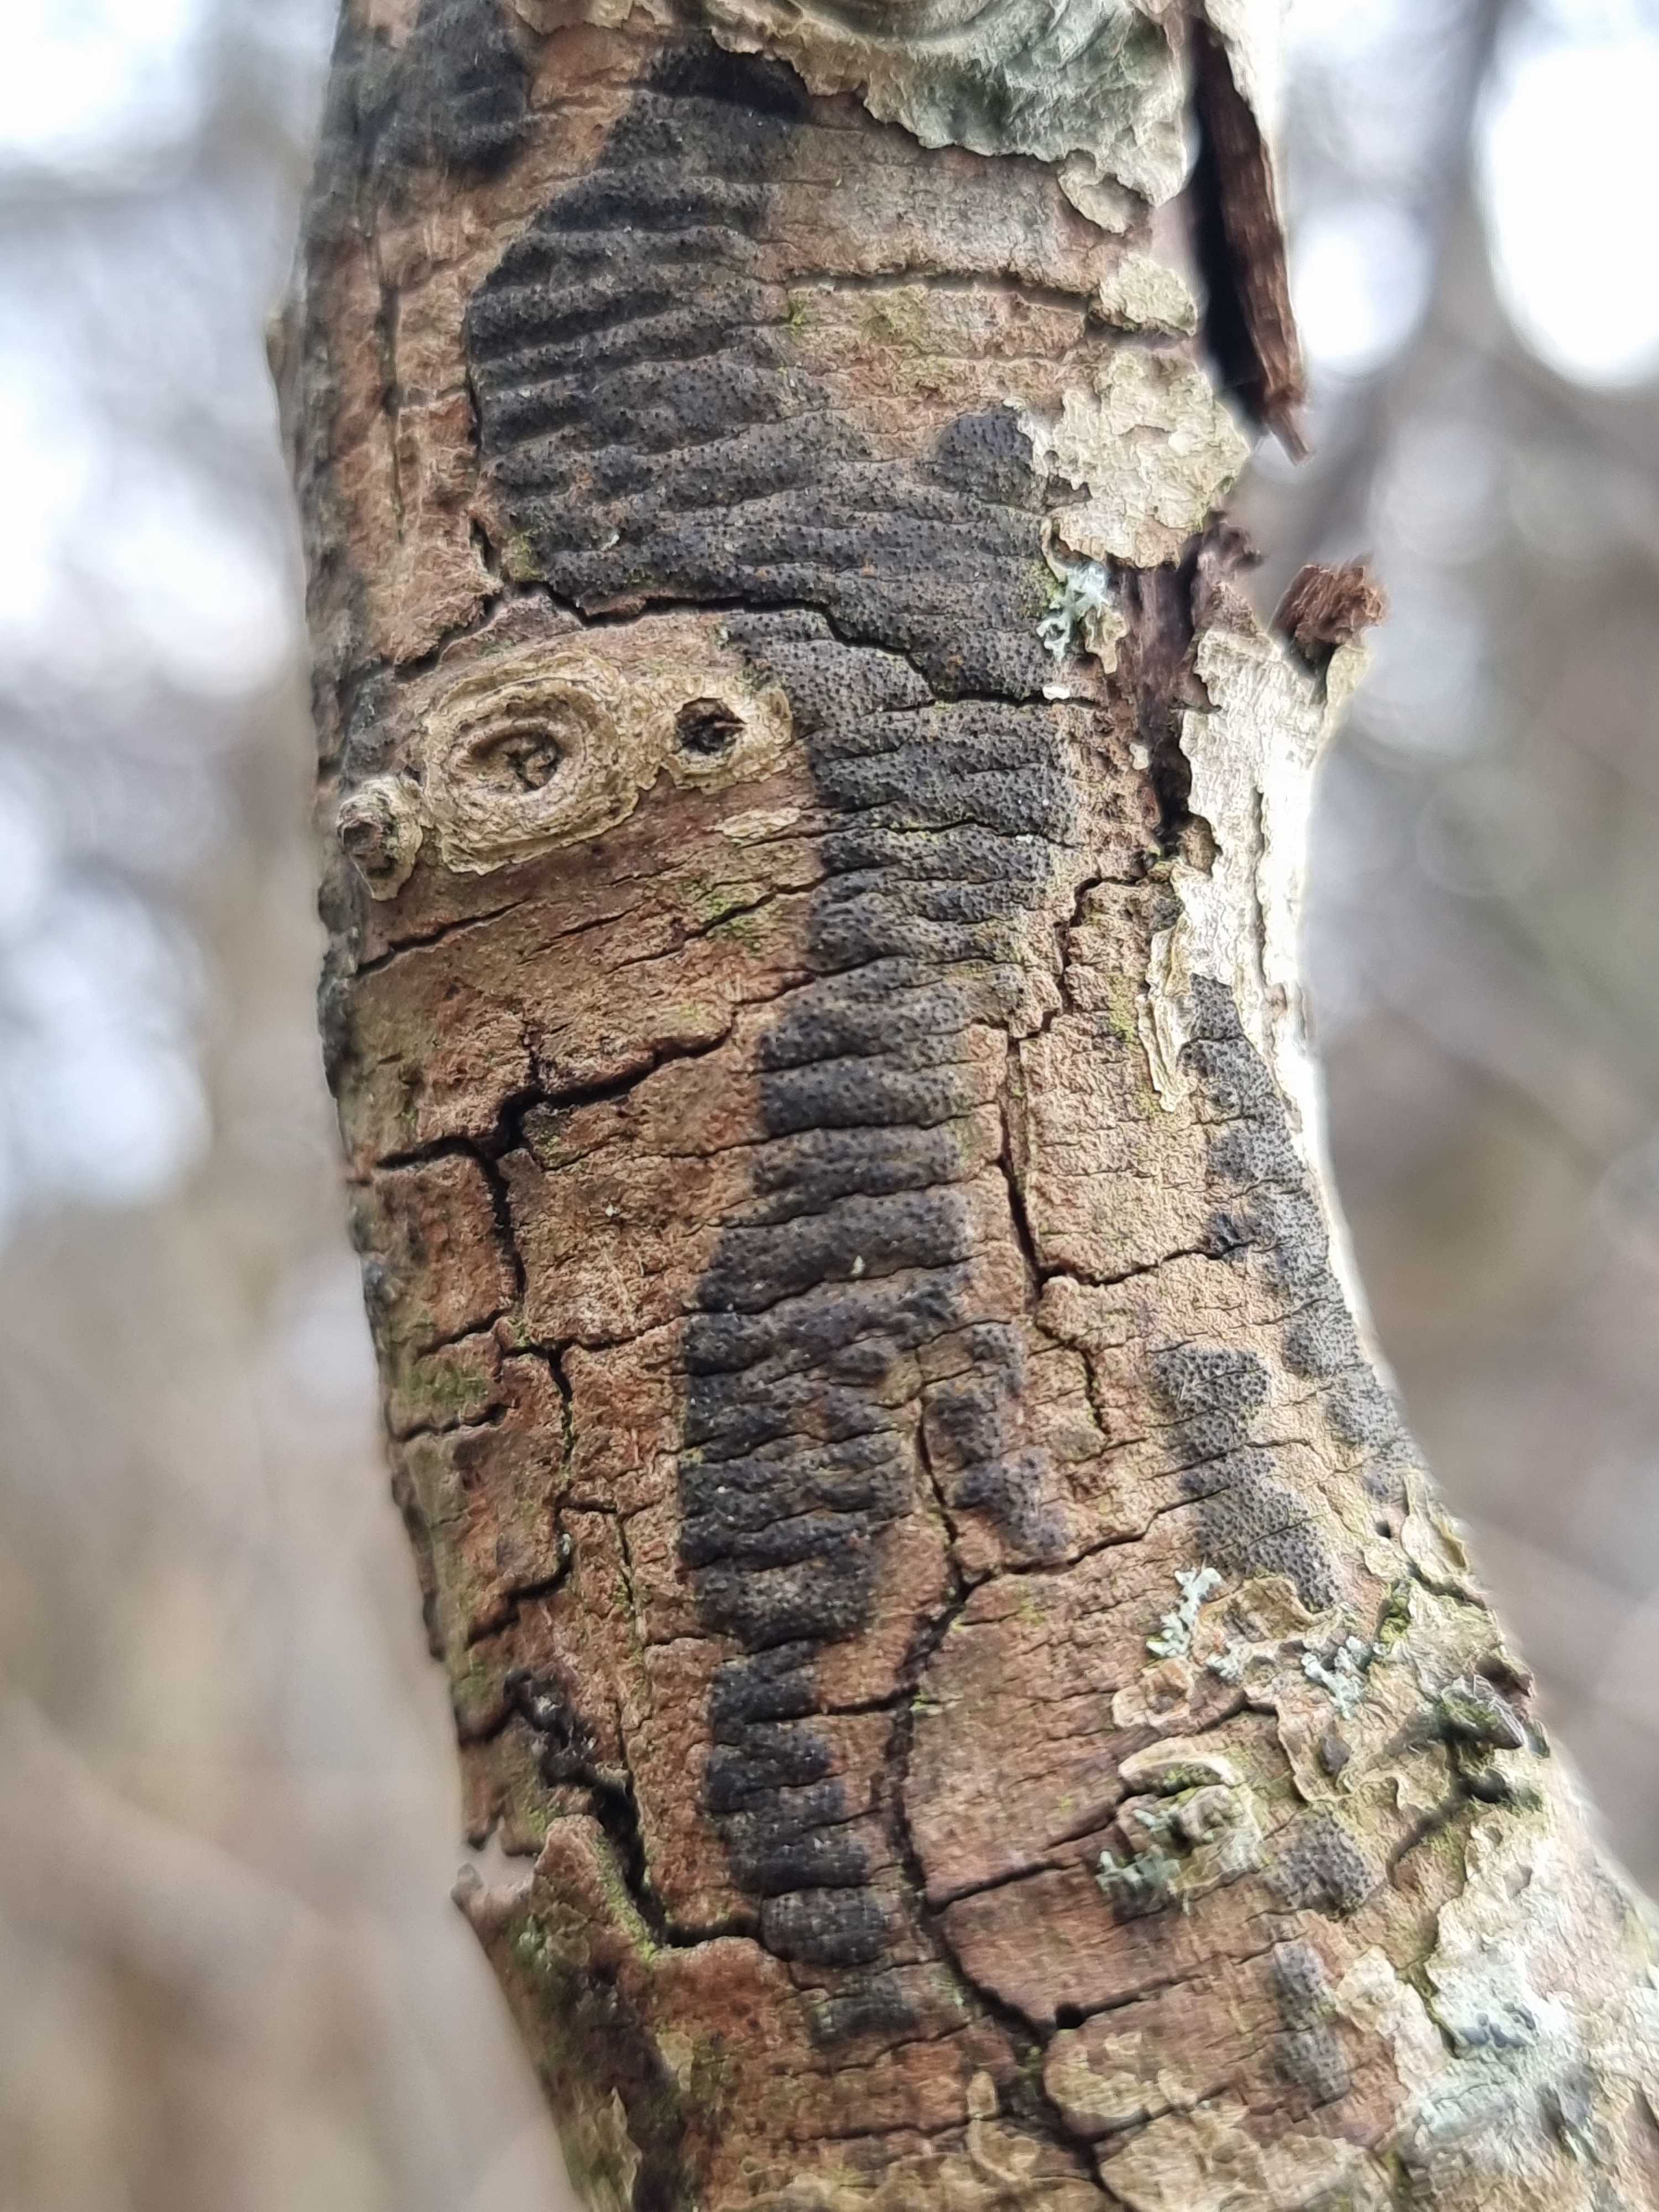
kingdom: Fungi
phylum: Ascomycota
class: Sordariomycetes
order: Xylariales
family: Diatrypaceae
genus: Eutypa
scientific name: Eutypa
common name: kulskorpe
